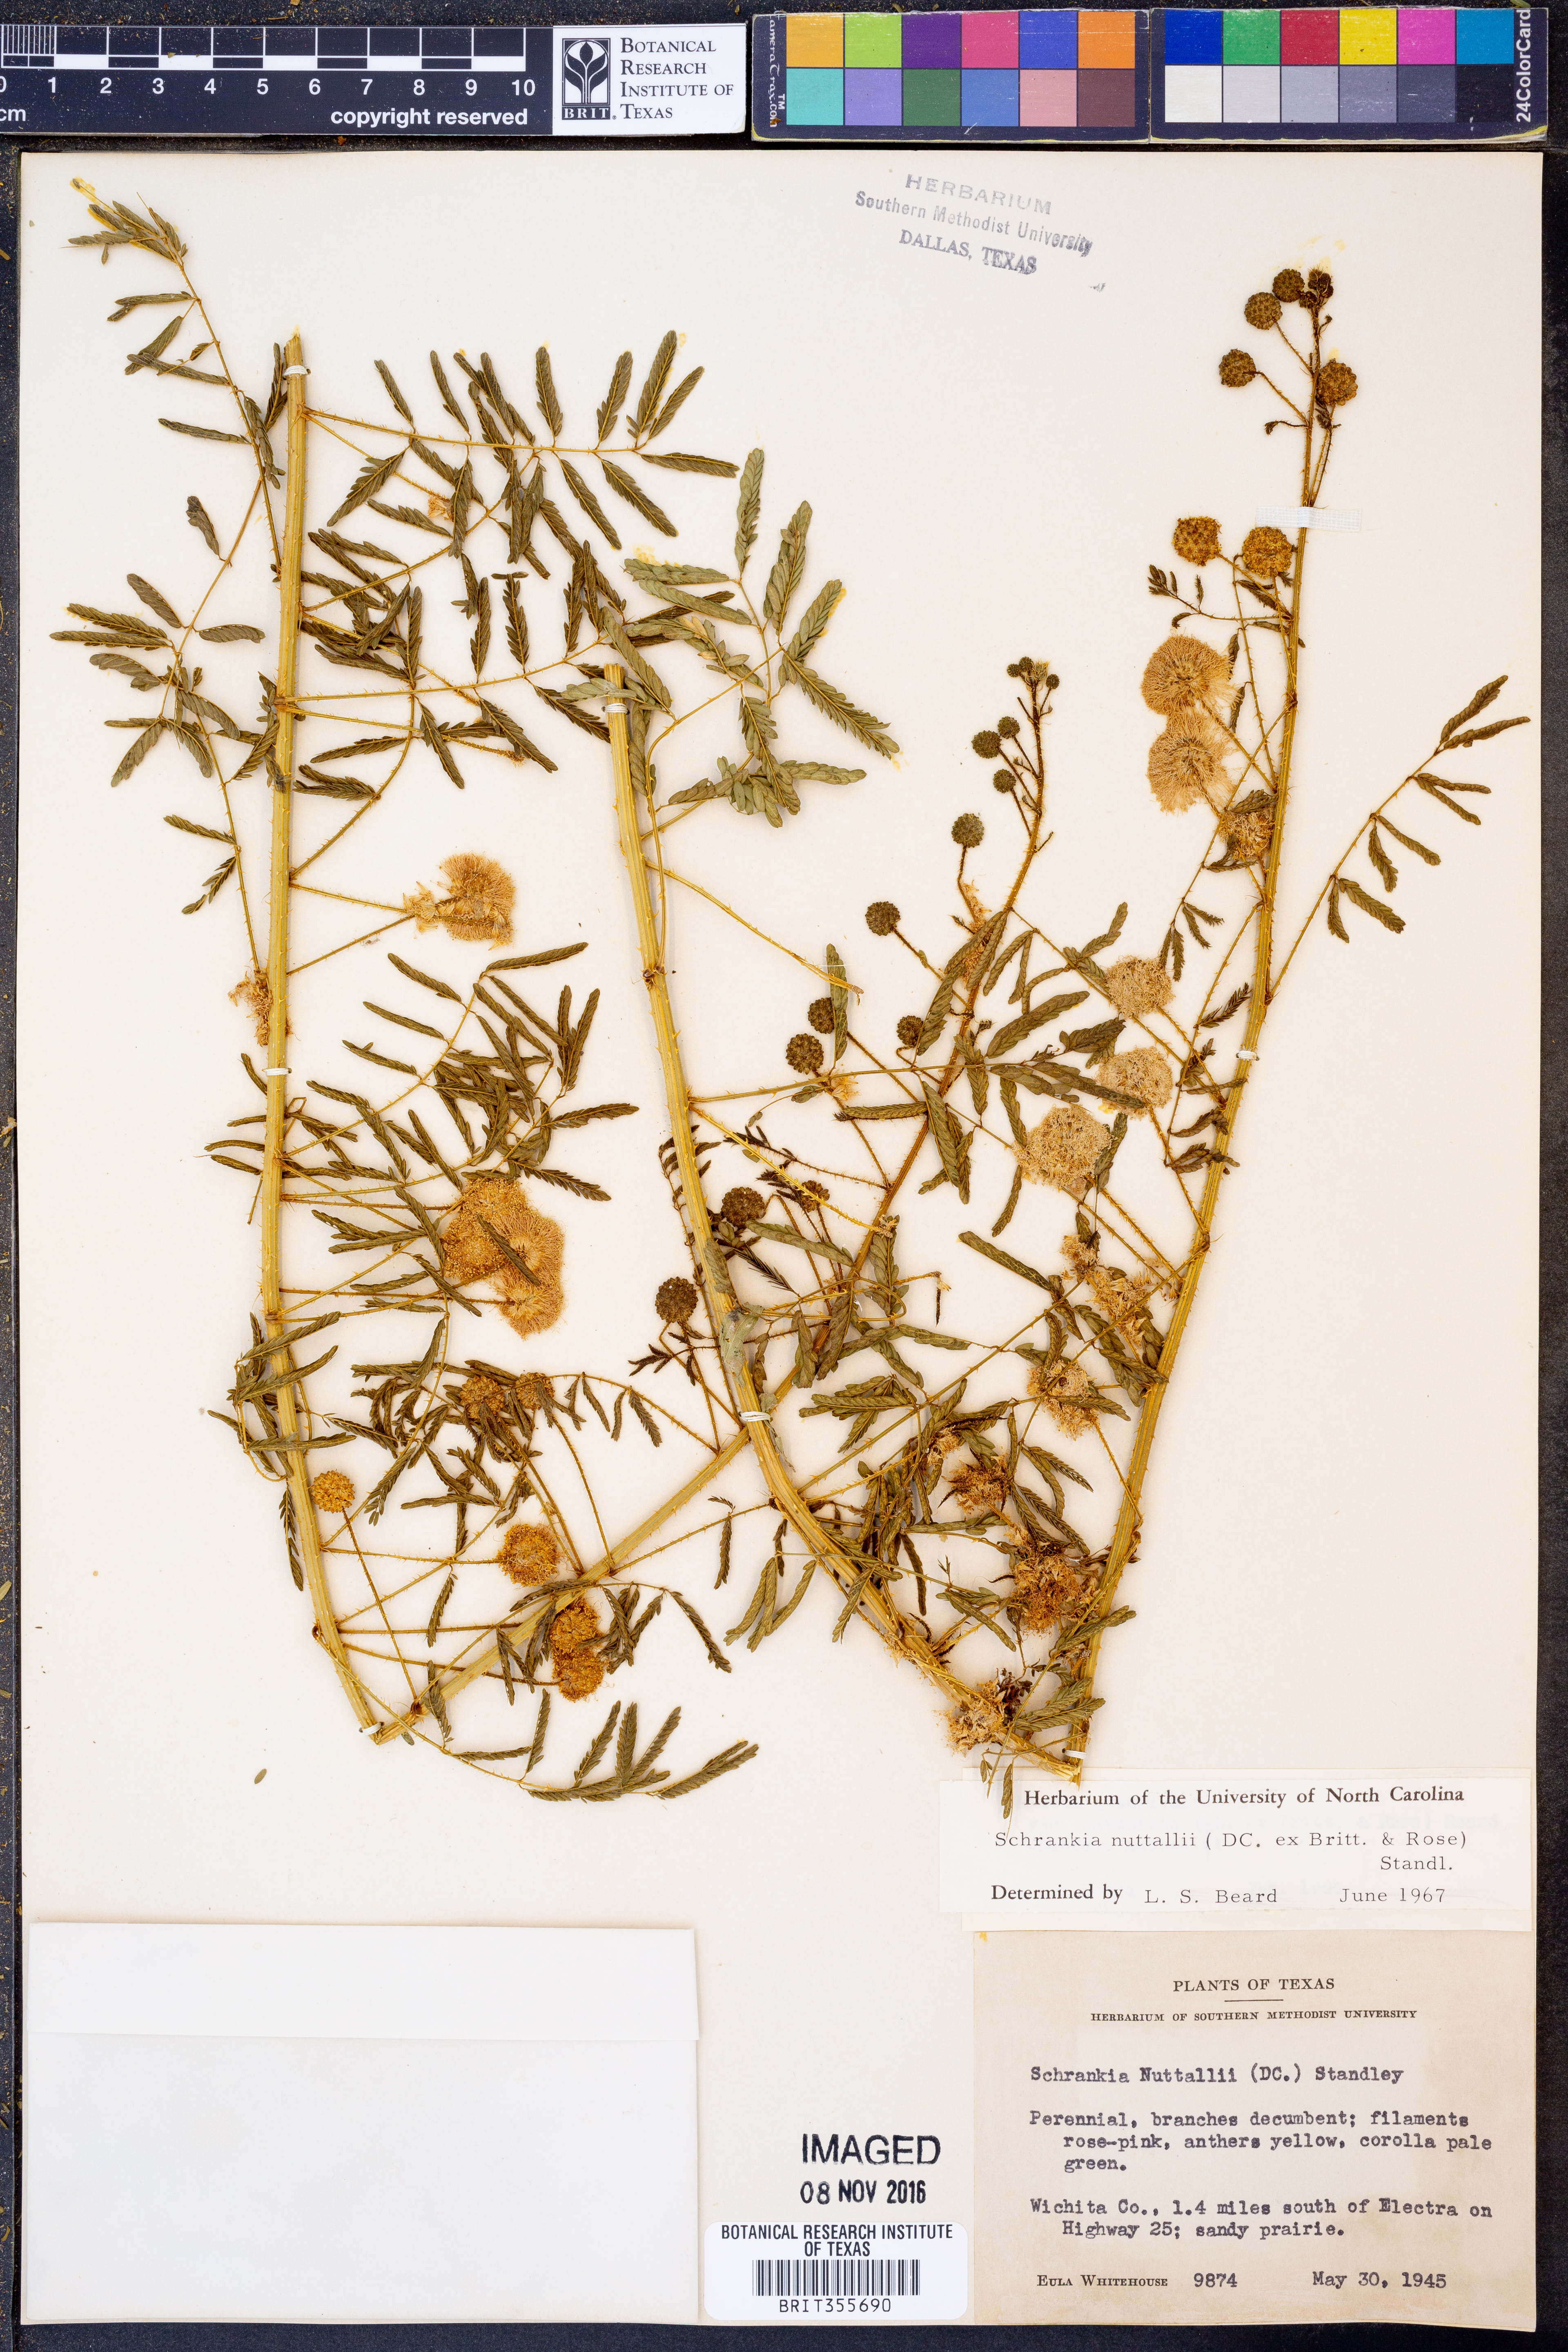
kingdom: Plantae
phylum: Tracheophyta
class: Magnoliopsida
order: Fabales
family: Fabaceae
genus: Mimosa
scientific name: Mimosa quadrivalvis
